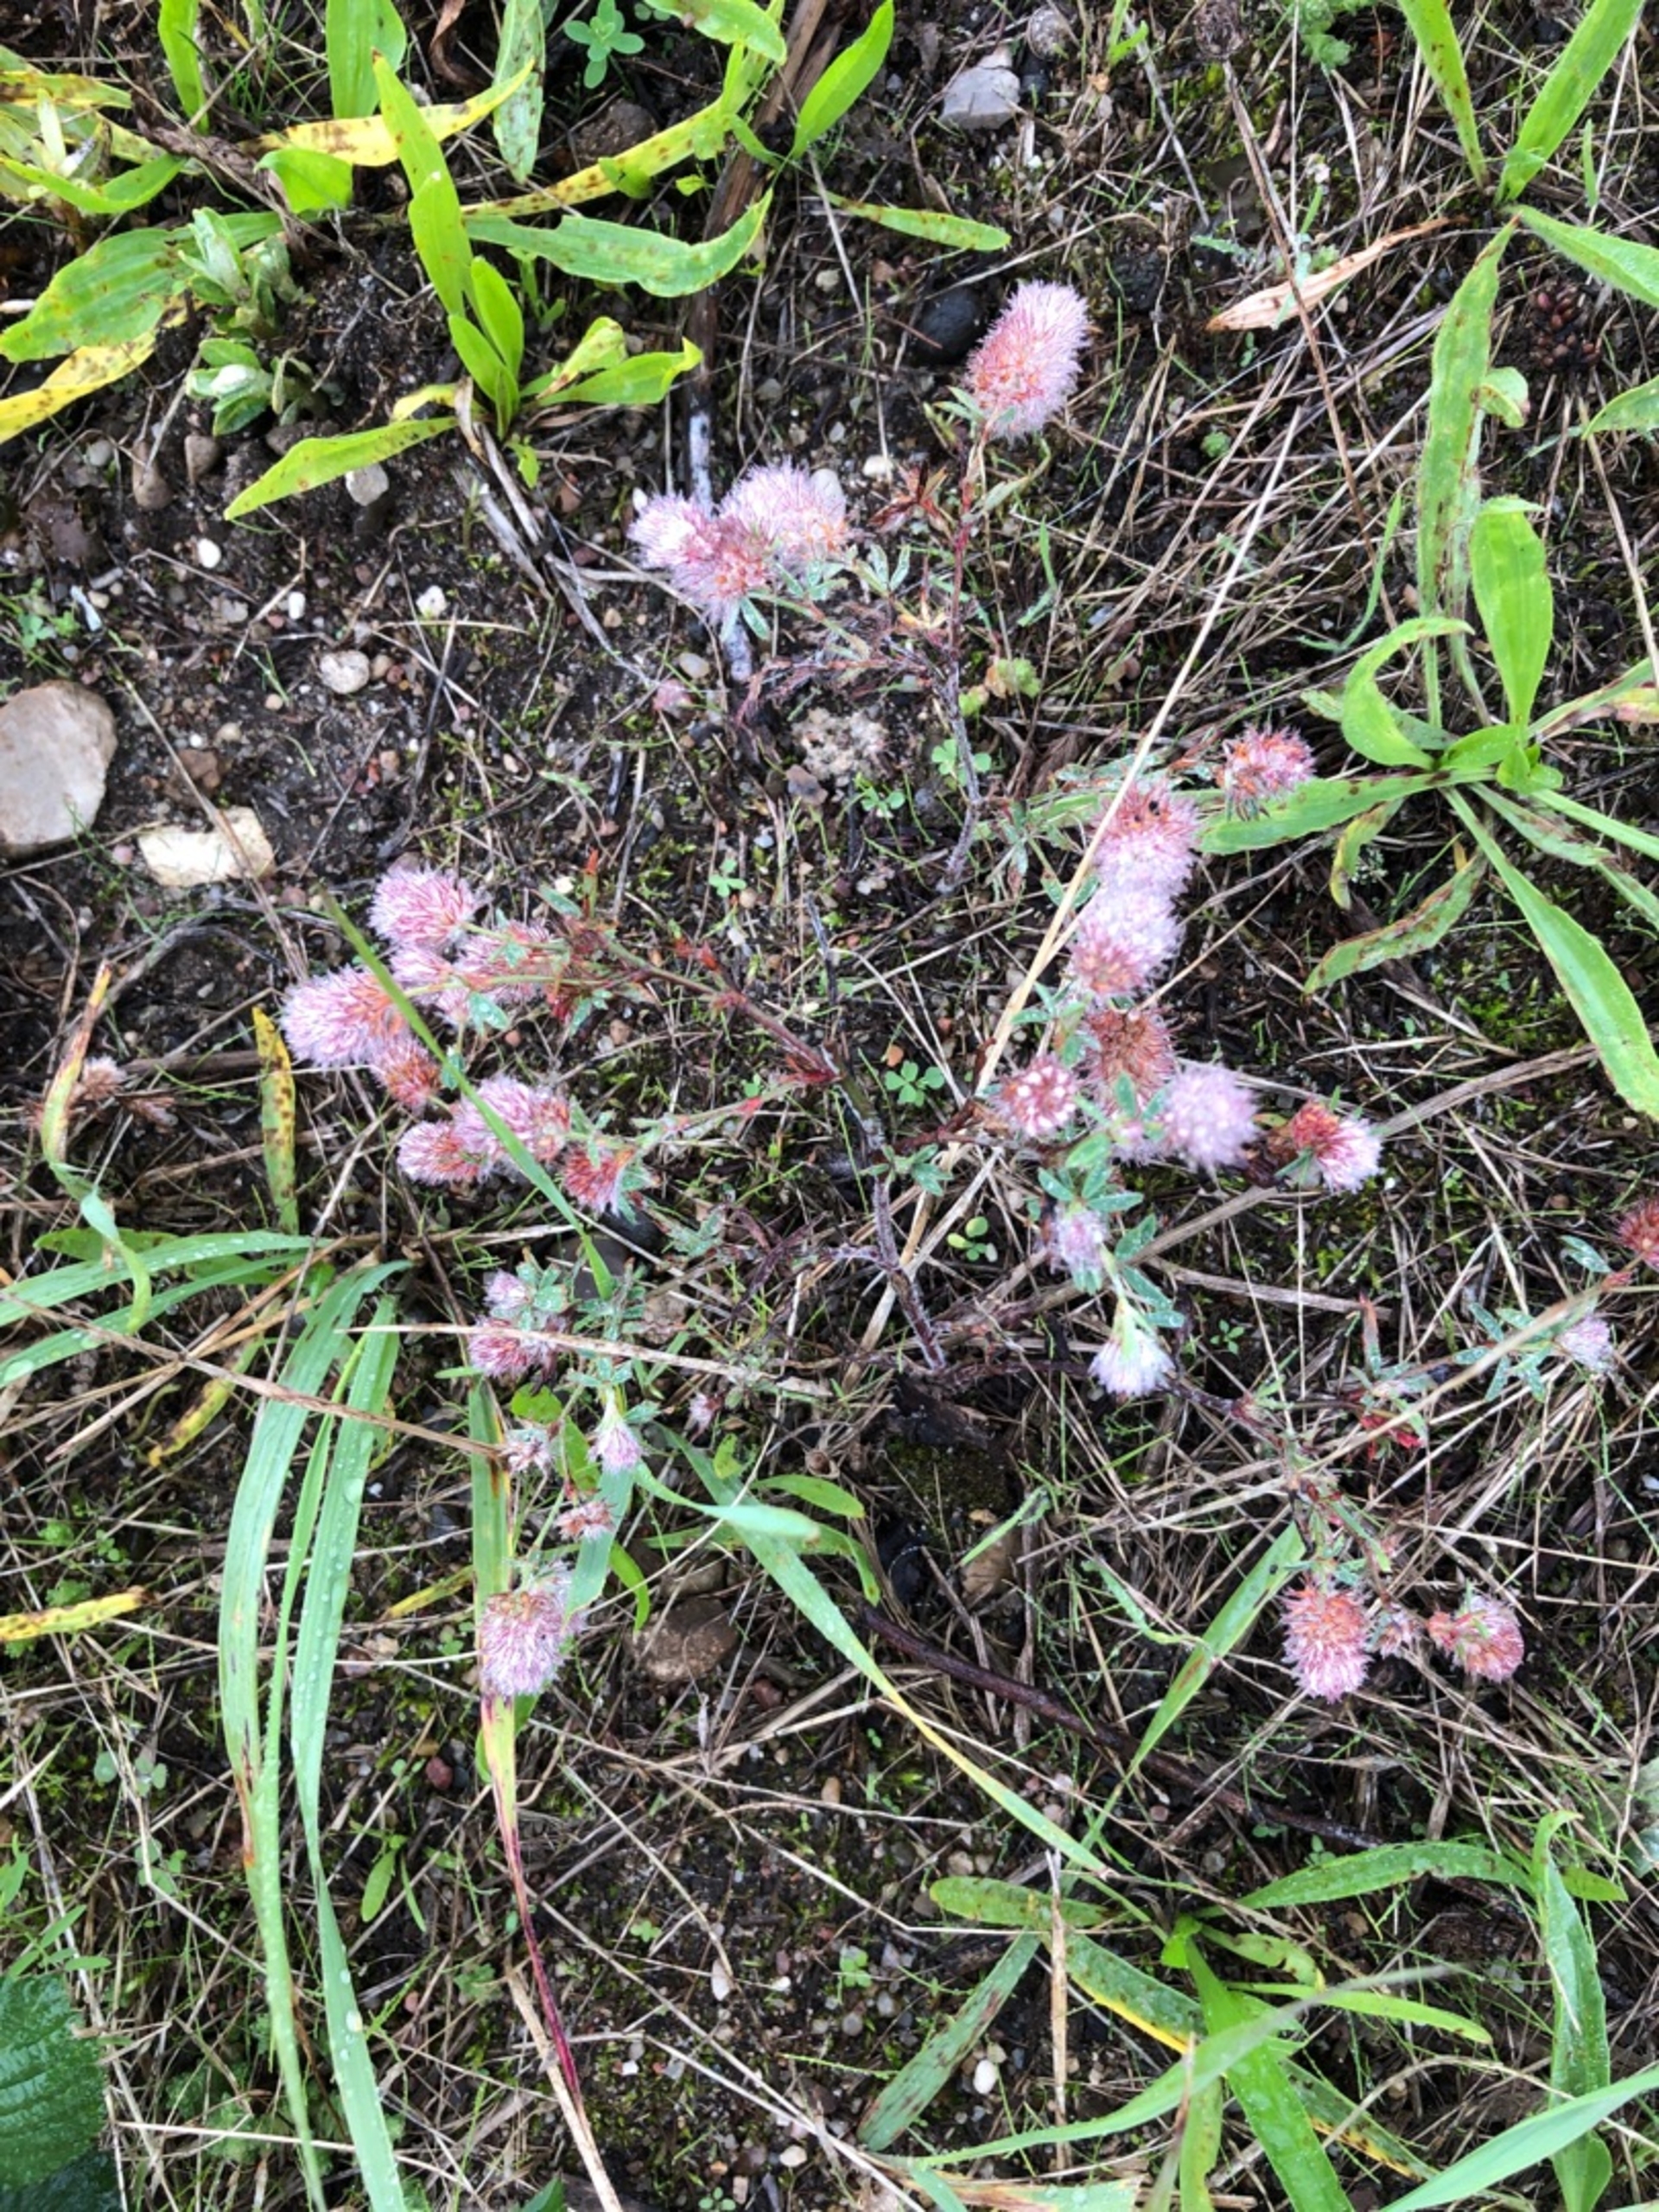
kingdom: Plantae
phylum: Tracheophyta
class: Magnoliopsida
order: Fabales
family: Fabaceae
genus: Trifolium
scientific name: Trifolium arvense
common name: Hare-kløver
